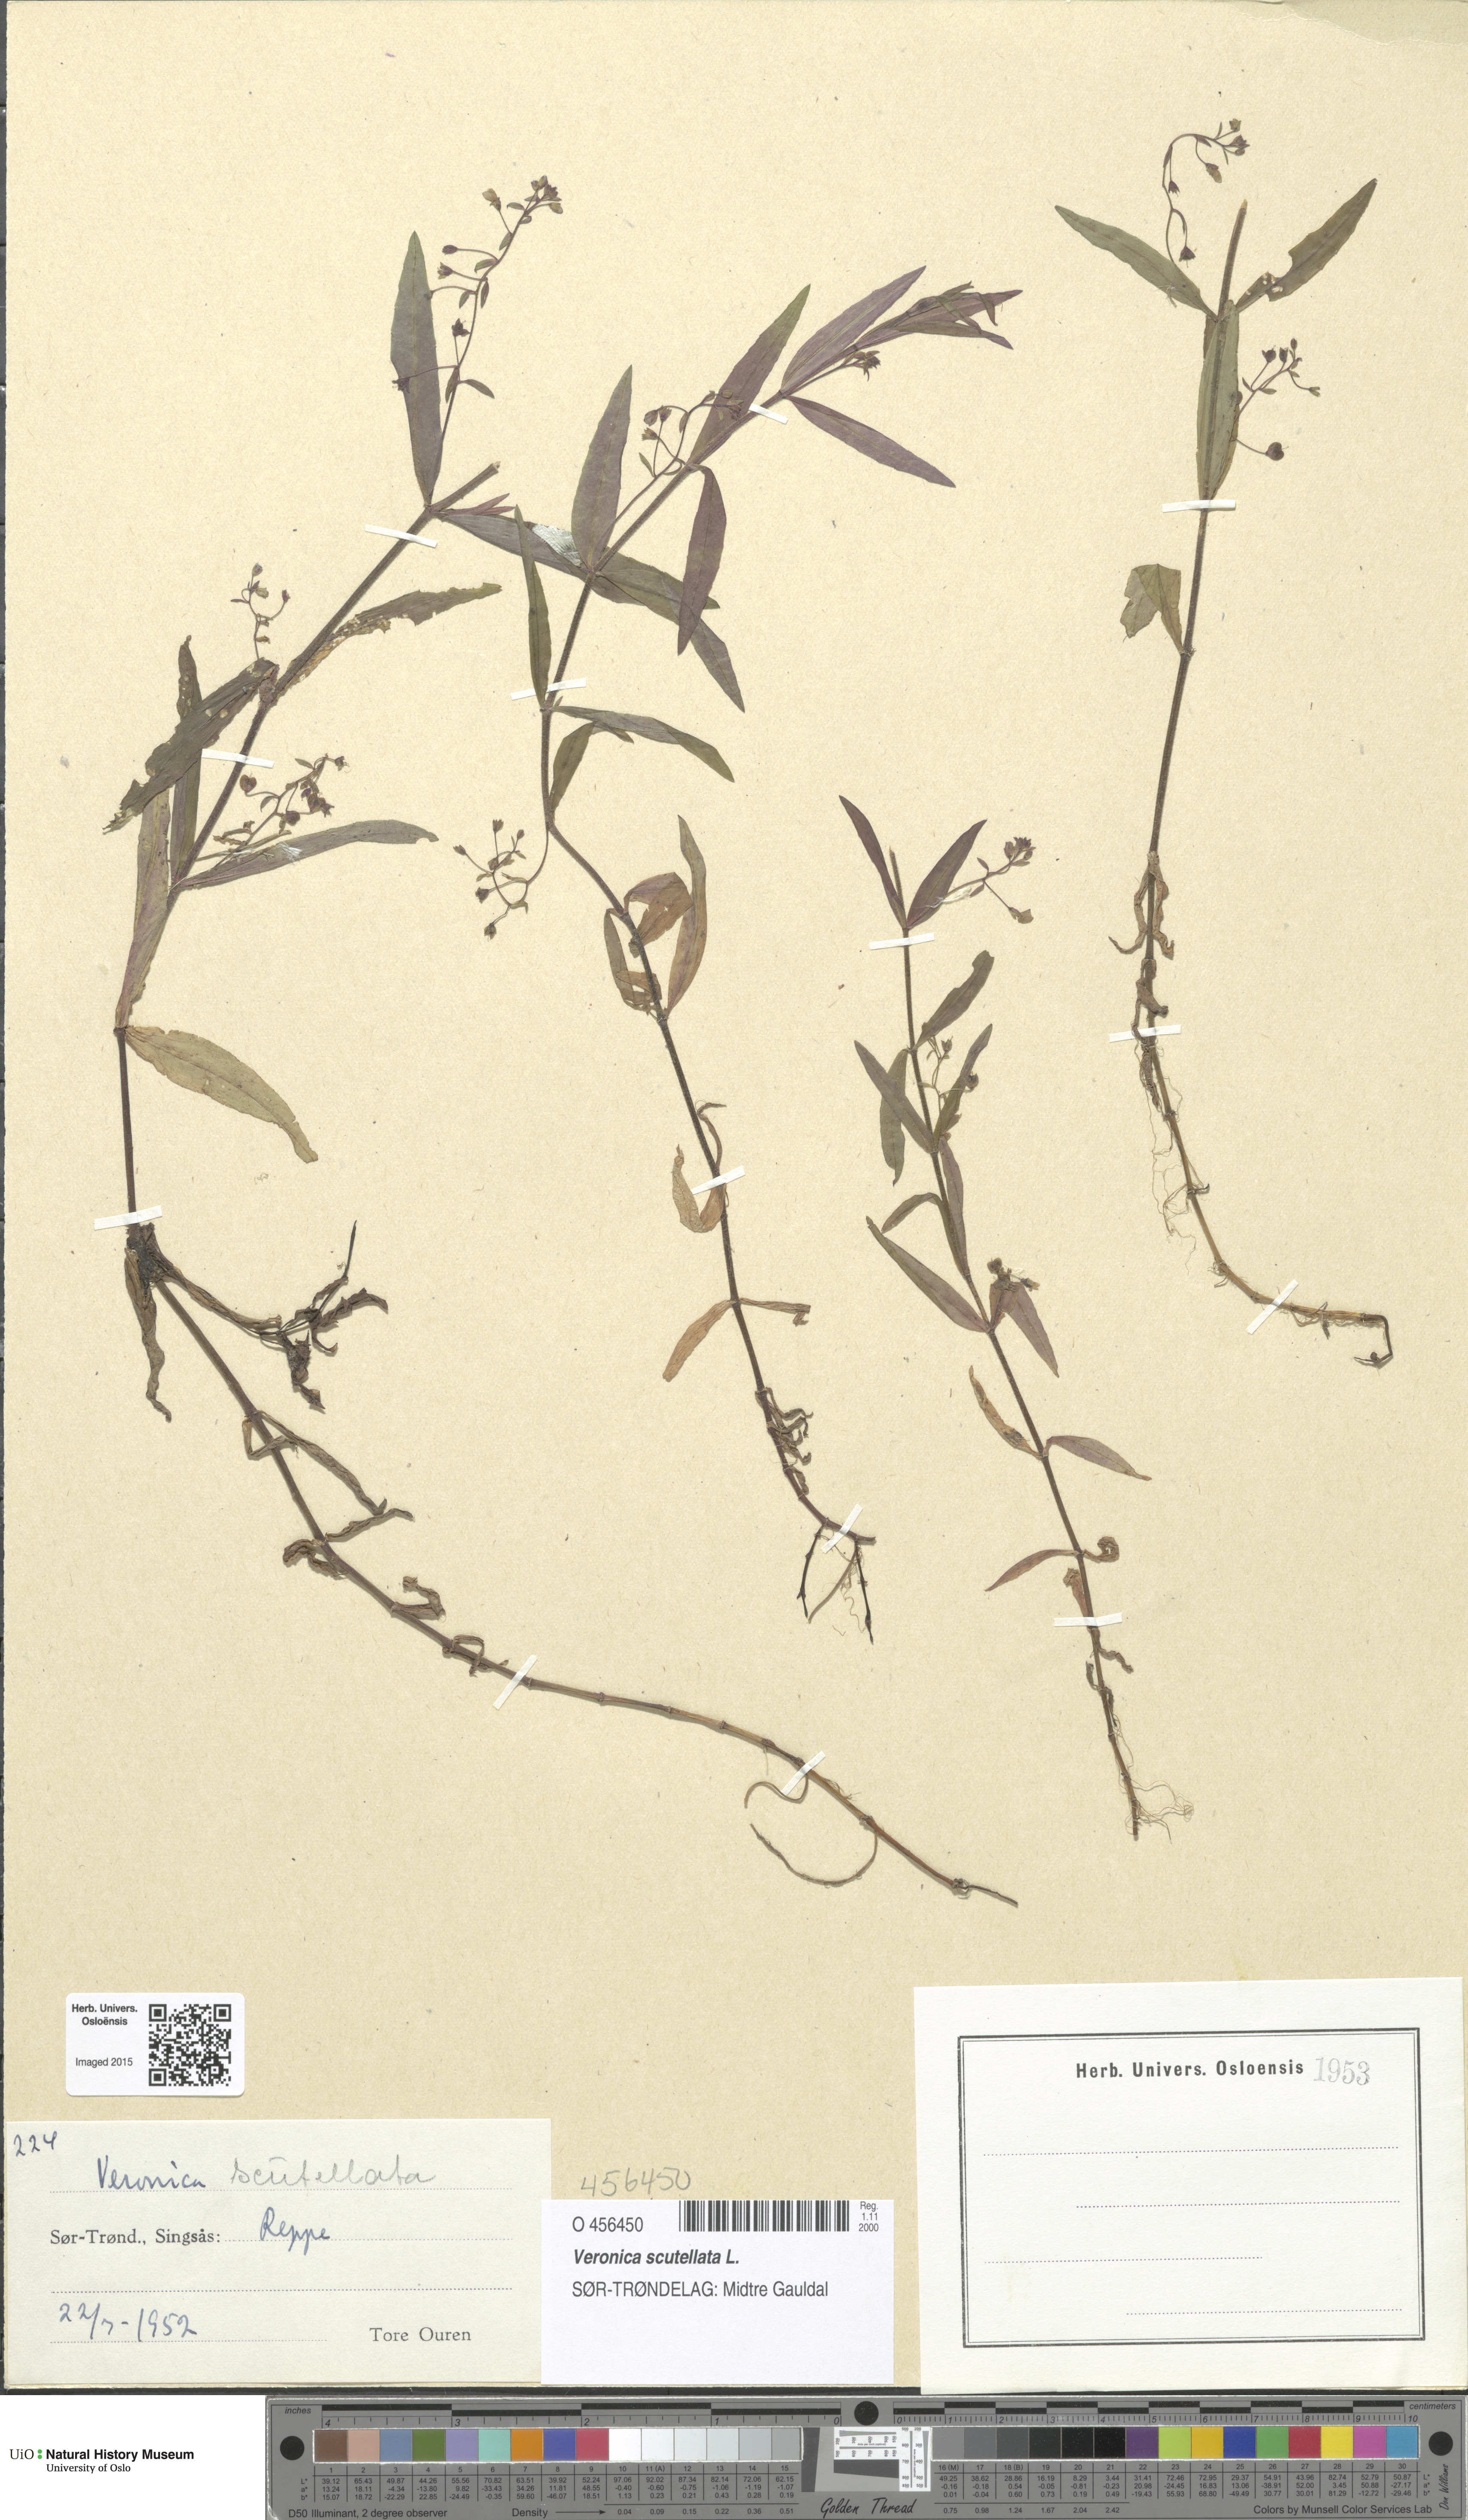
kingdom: Plantae
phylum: Tracheophyta
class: Magnoliopsida
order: Lamiales
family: Plantaginaceae
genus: Veronica
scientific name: Veronica scutellata
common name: Marsh speedwell
